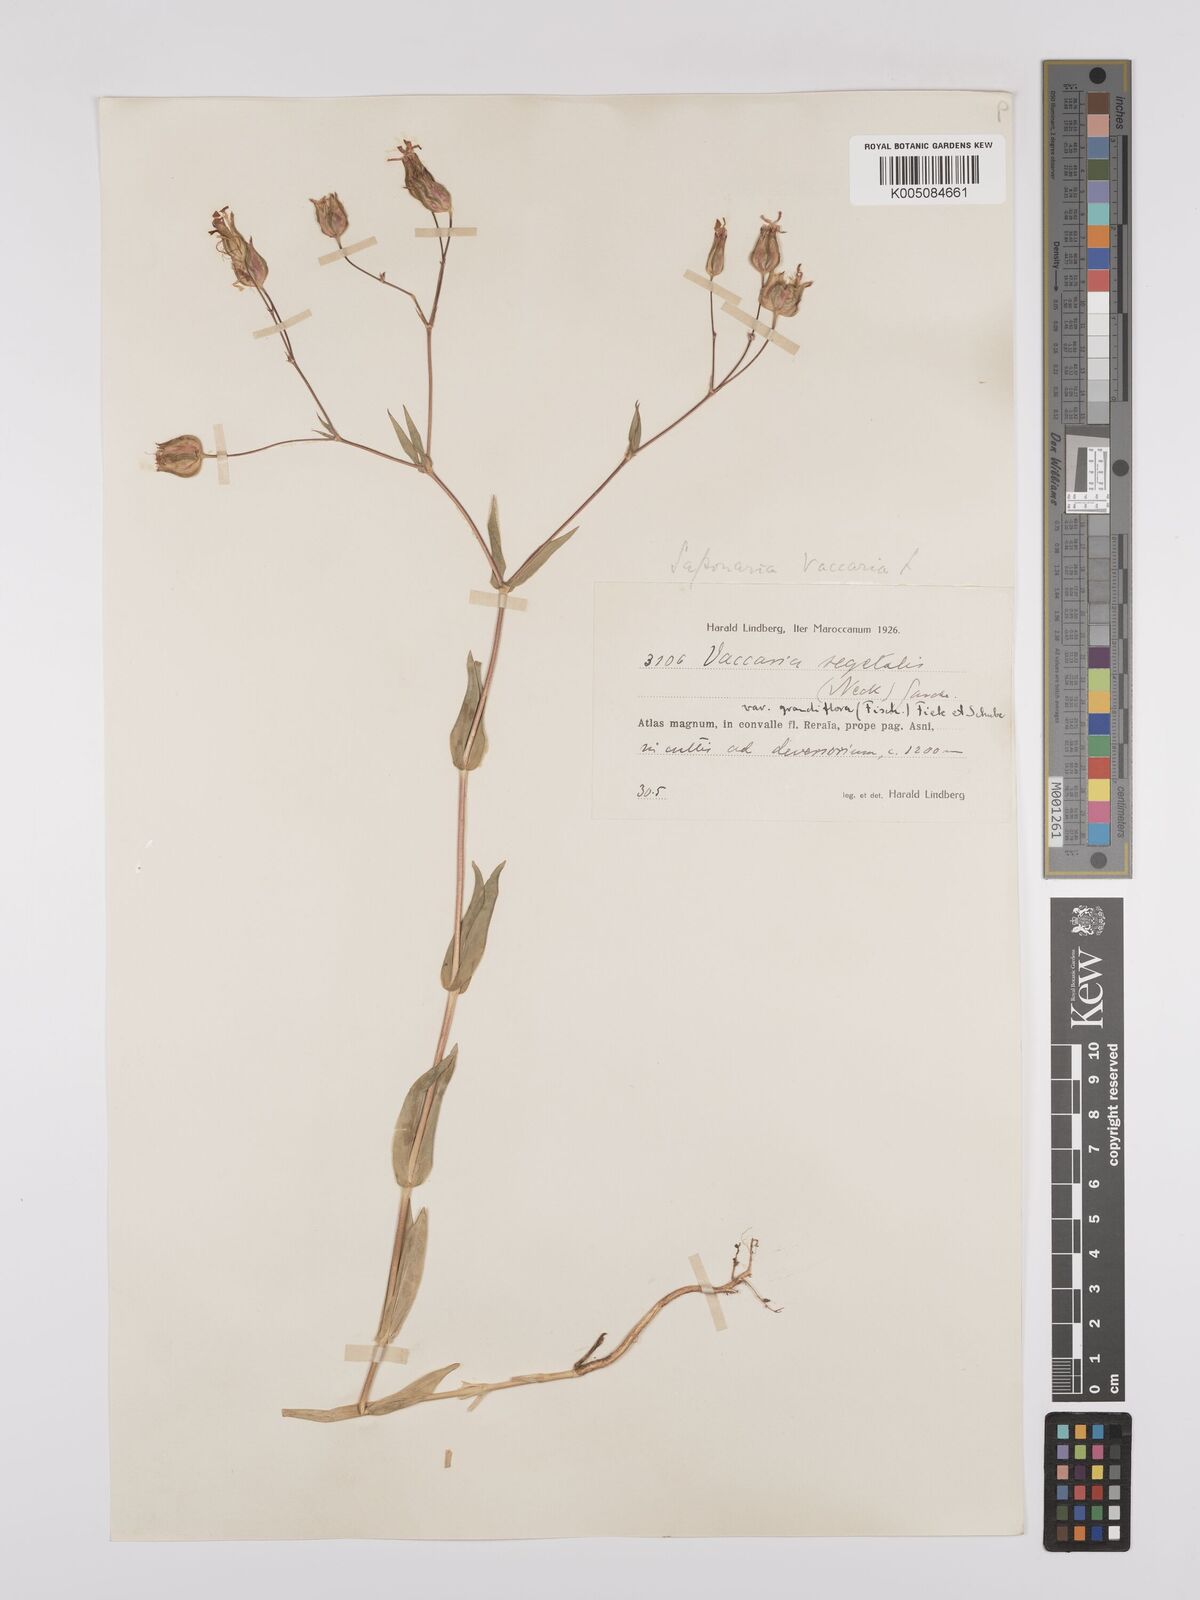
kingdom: Plantae
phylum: Tracheophyta
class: Magnoliopsida
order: Caryophyllales
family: Caryophyllaceae
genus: Gypsophila
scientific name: Gypsophila vaccaria
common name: Cow soapwort
